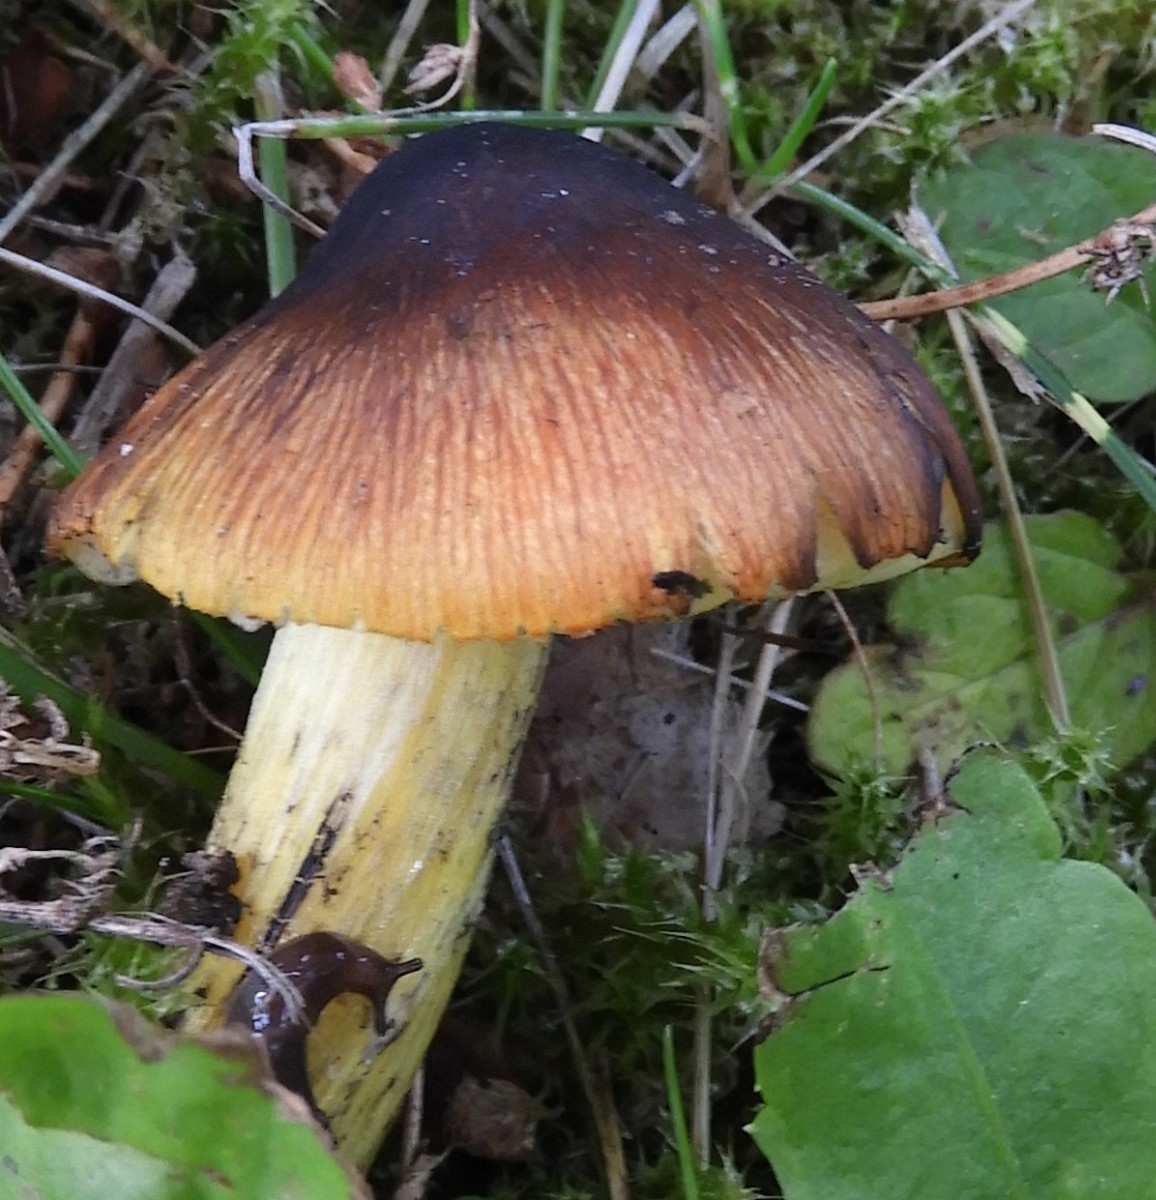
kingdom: Fungi
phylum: Basidiomycota
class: Agaricomycetes
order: Agaricales
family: Hygrophoraceae
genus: Hygrocybe
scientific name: Hygrocybe conica
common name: kegle-vokshat
